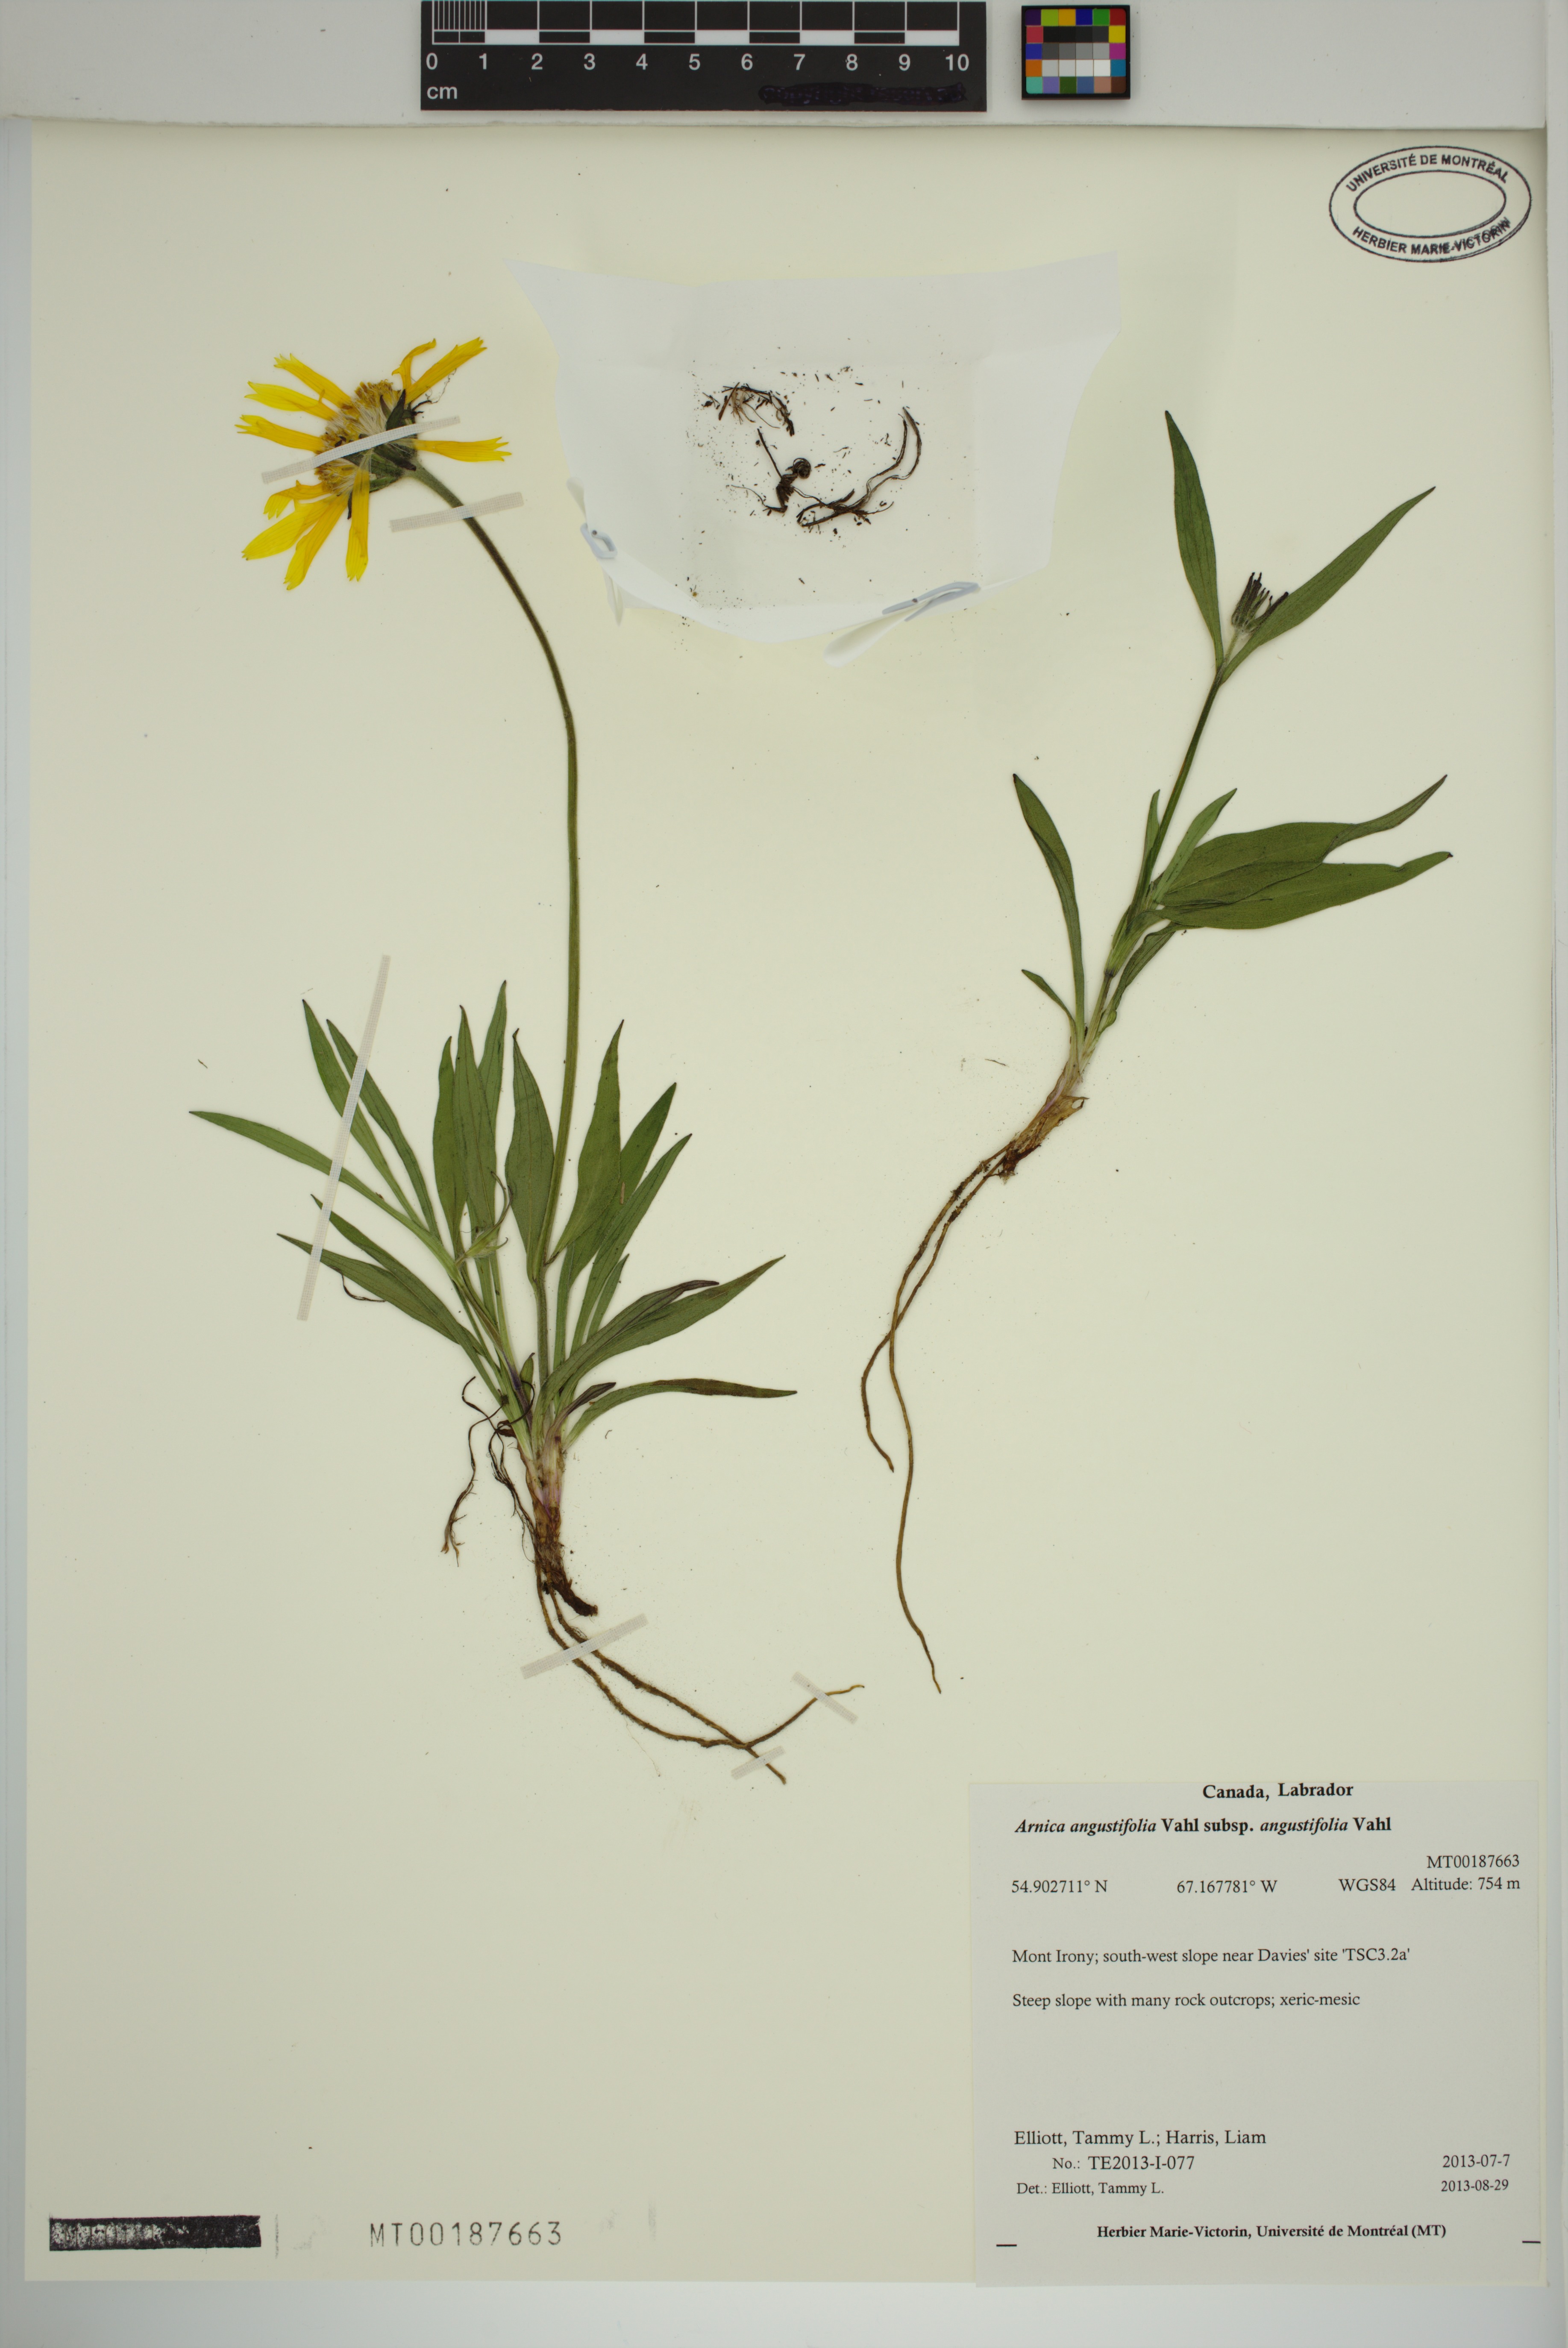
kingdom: Plantae
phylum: Tracheophyta
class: Magnoliopsida
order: Asterales
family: Asteraceae
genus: Arnica
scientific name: Arnica angustifolia
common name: Arctic arnica
